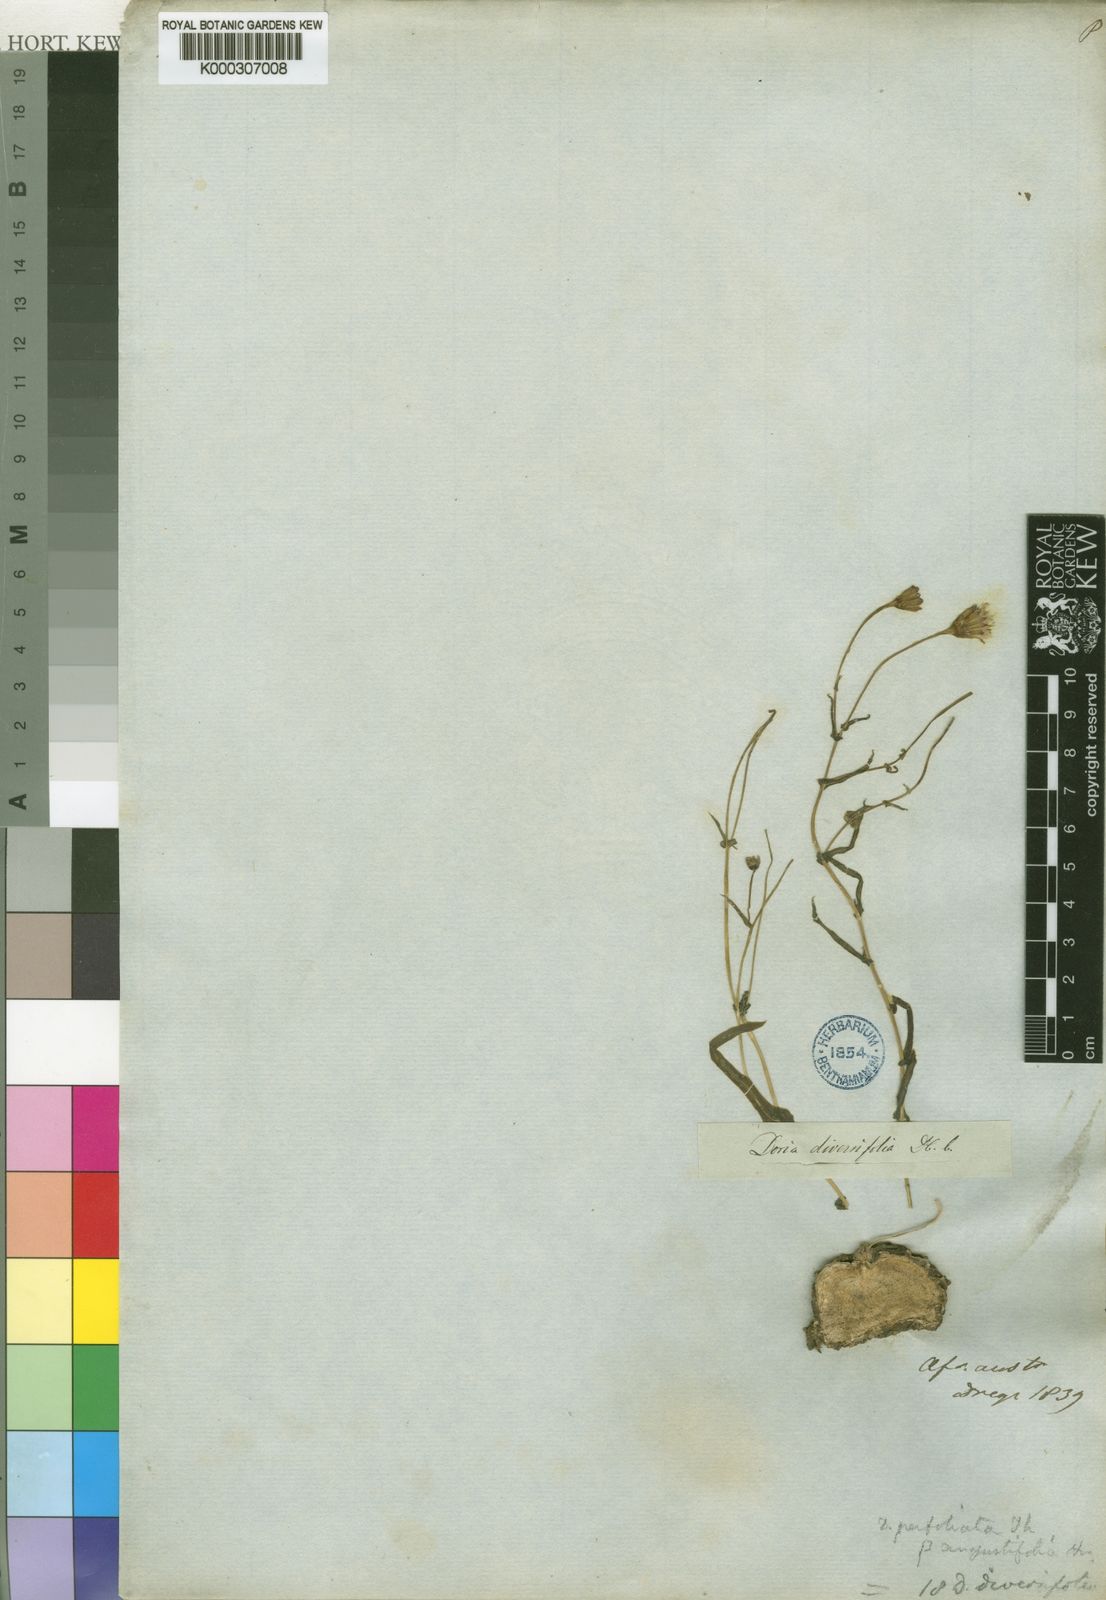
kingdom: Plantae
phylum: Tracheophyta
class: Magnoliopsida
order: Asterales
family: Asteraceae
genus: Othonna
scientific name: Othonna
